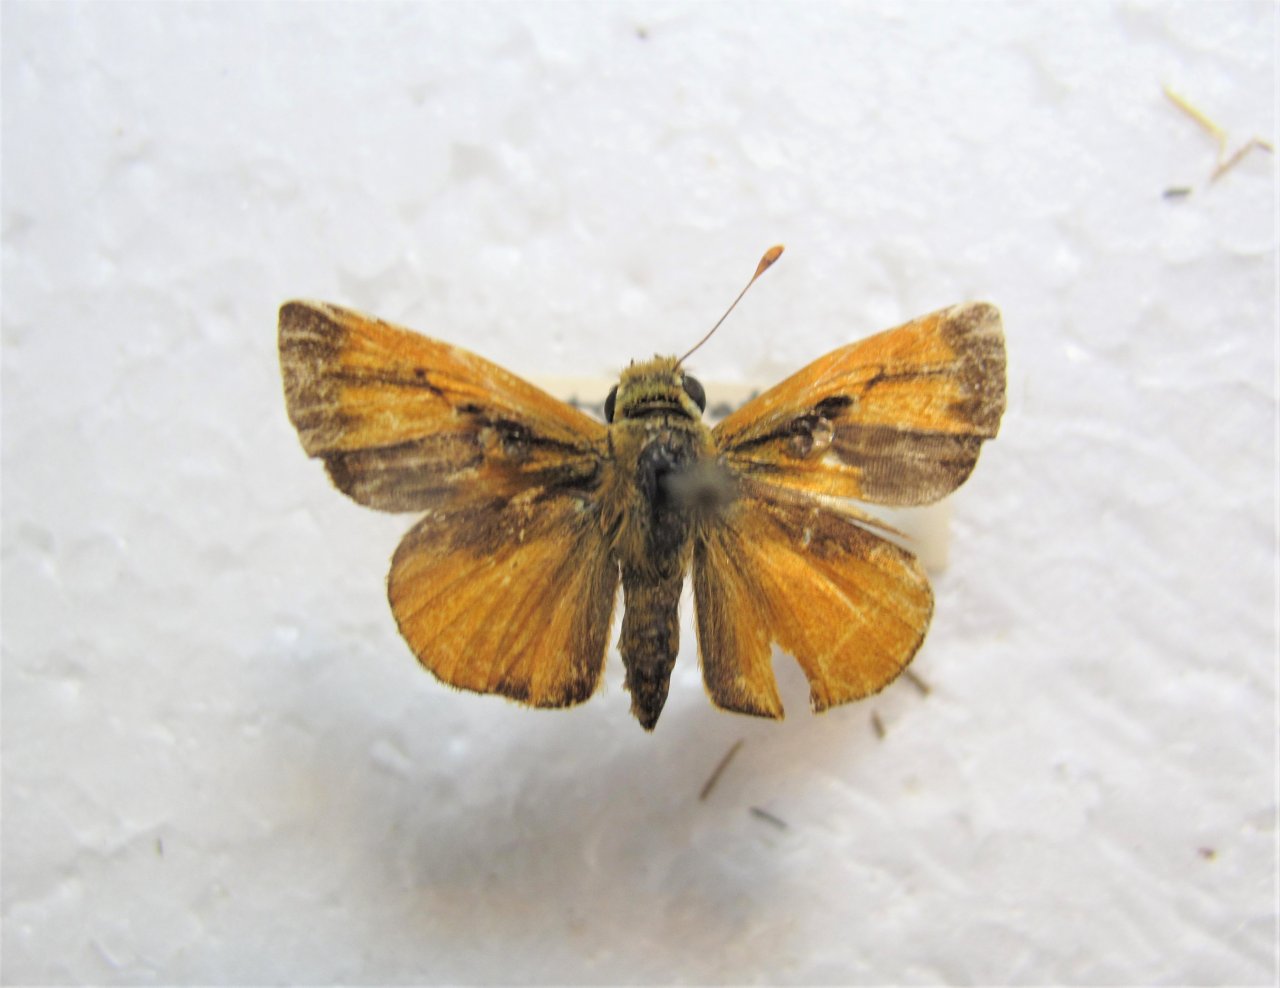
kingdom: Animalia
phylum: Arthropoda
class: Insecta
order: Lepidoptera
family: Hesperiidae
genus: Wallengrenia
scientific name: Wallengrenia otho
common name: Fiery Broken-dash
